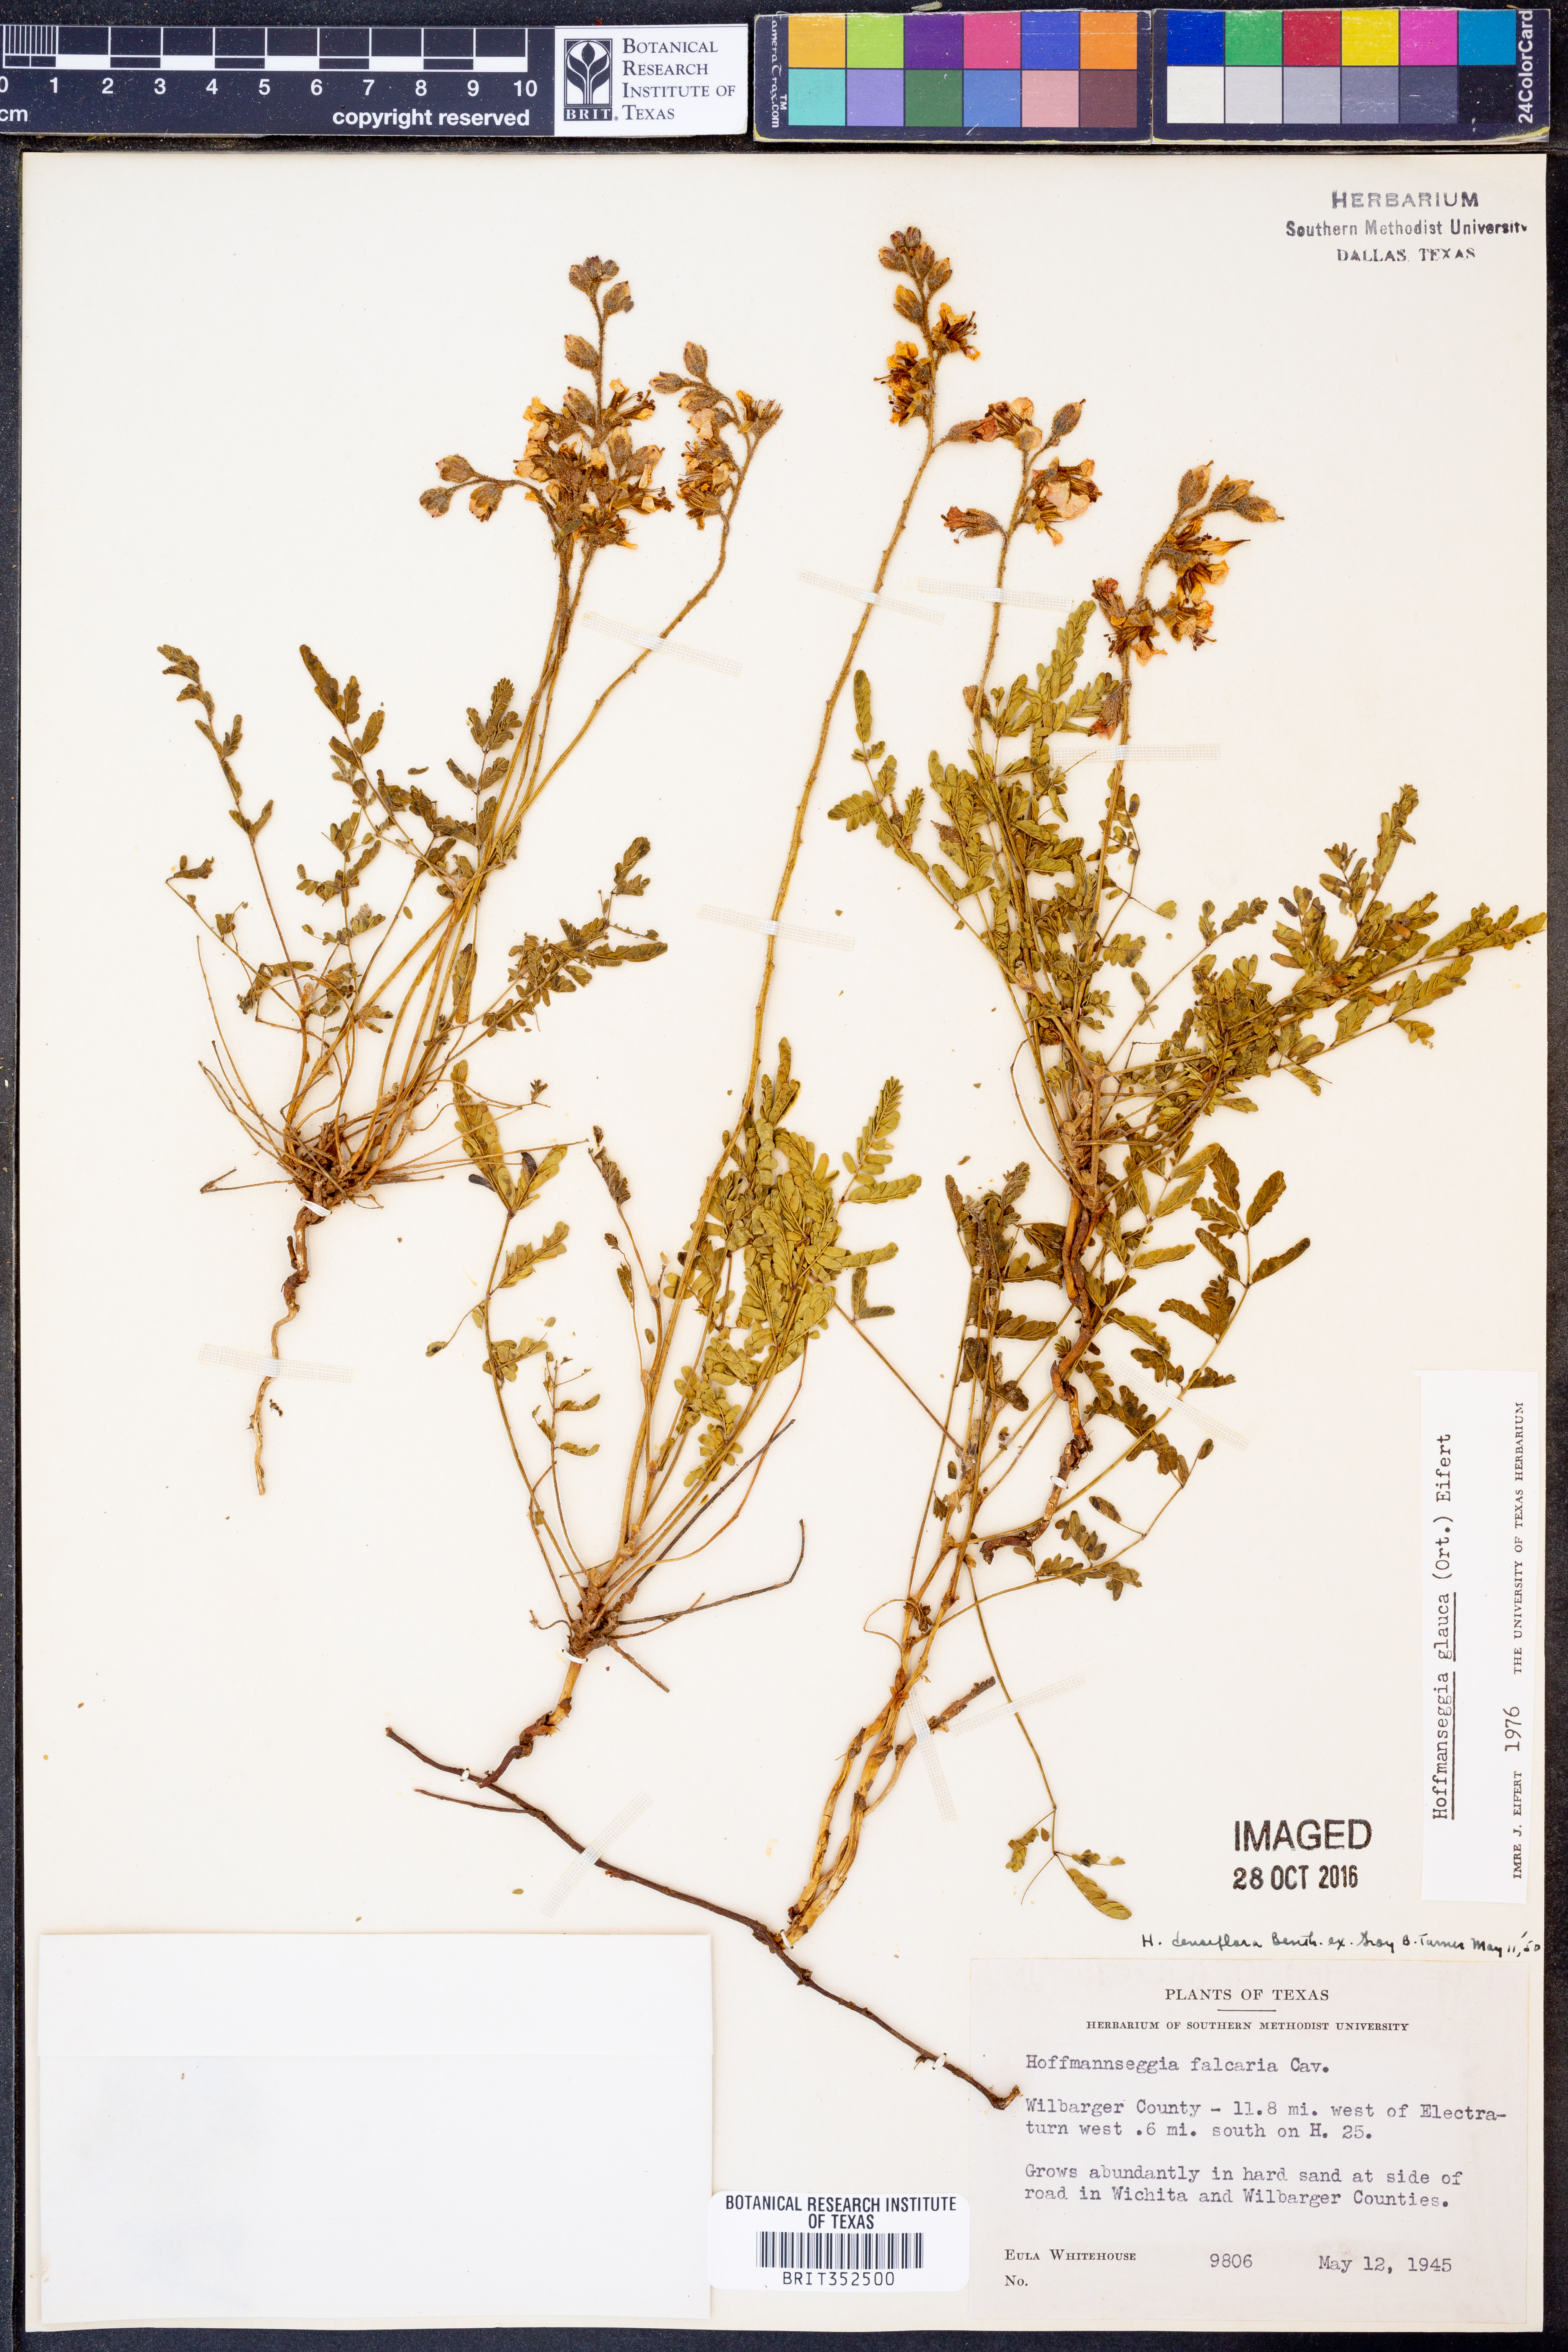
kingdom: Plantae
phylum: Tracheophyta
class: Magnoliopsida
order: Fabales
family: Fabaceae
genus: Hoffmannseggia
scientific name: Hoffmannseggia glauca
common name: Pignut
